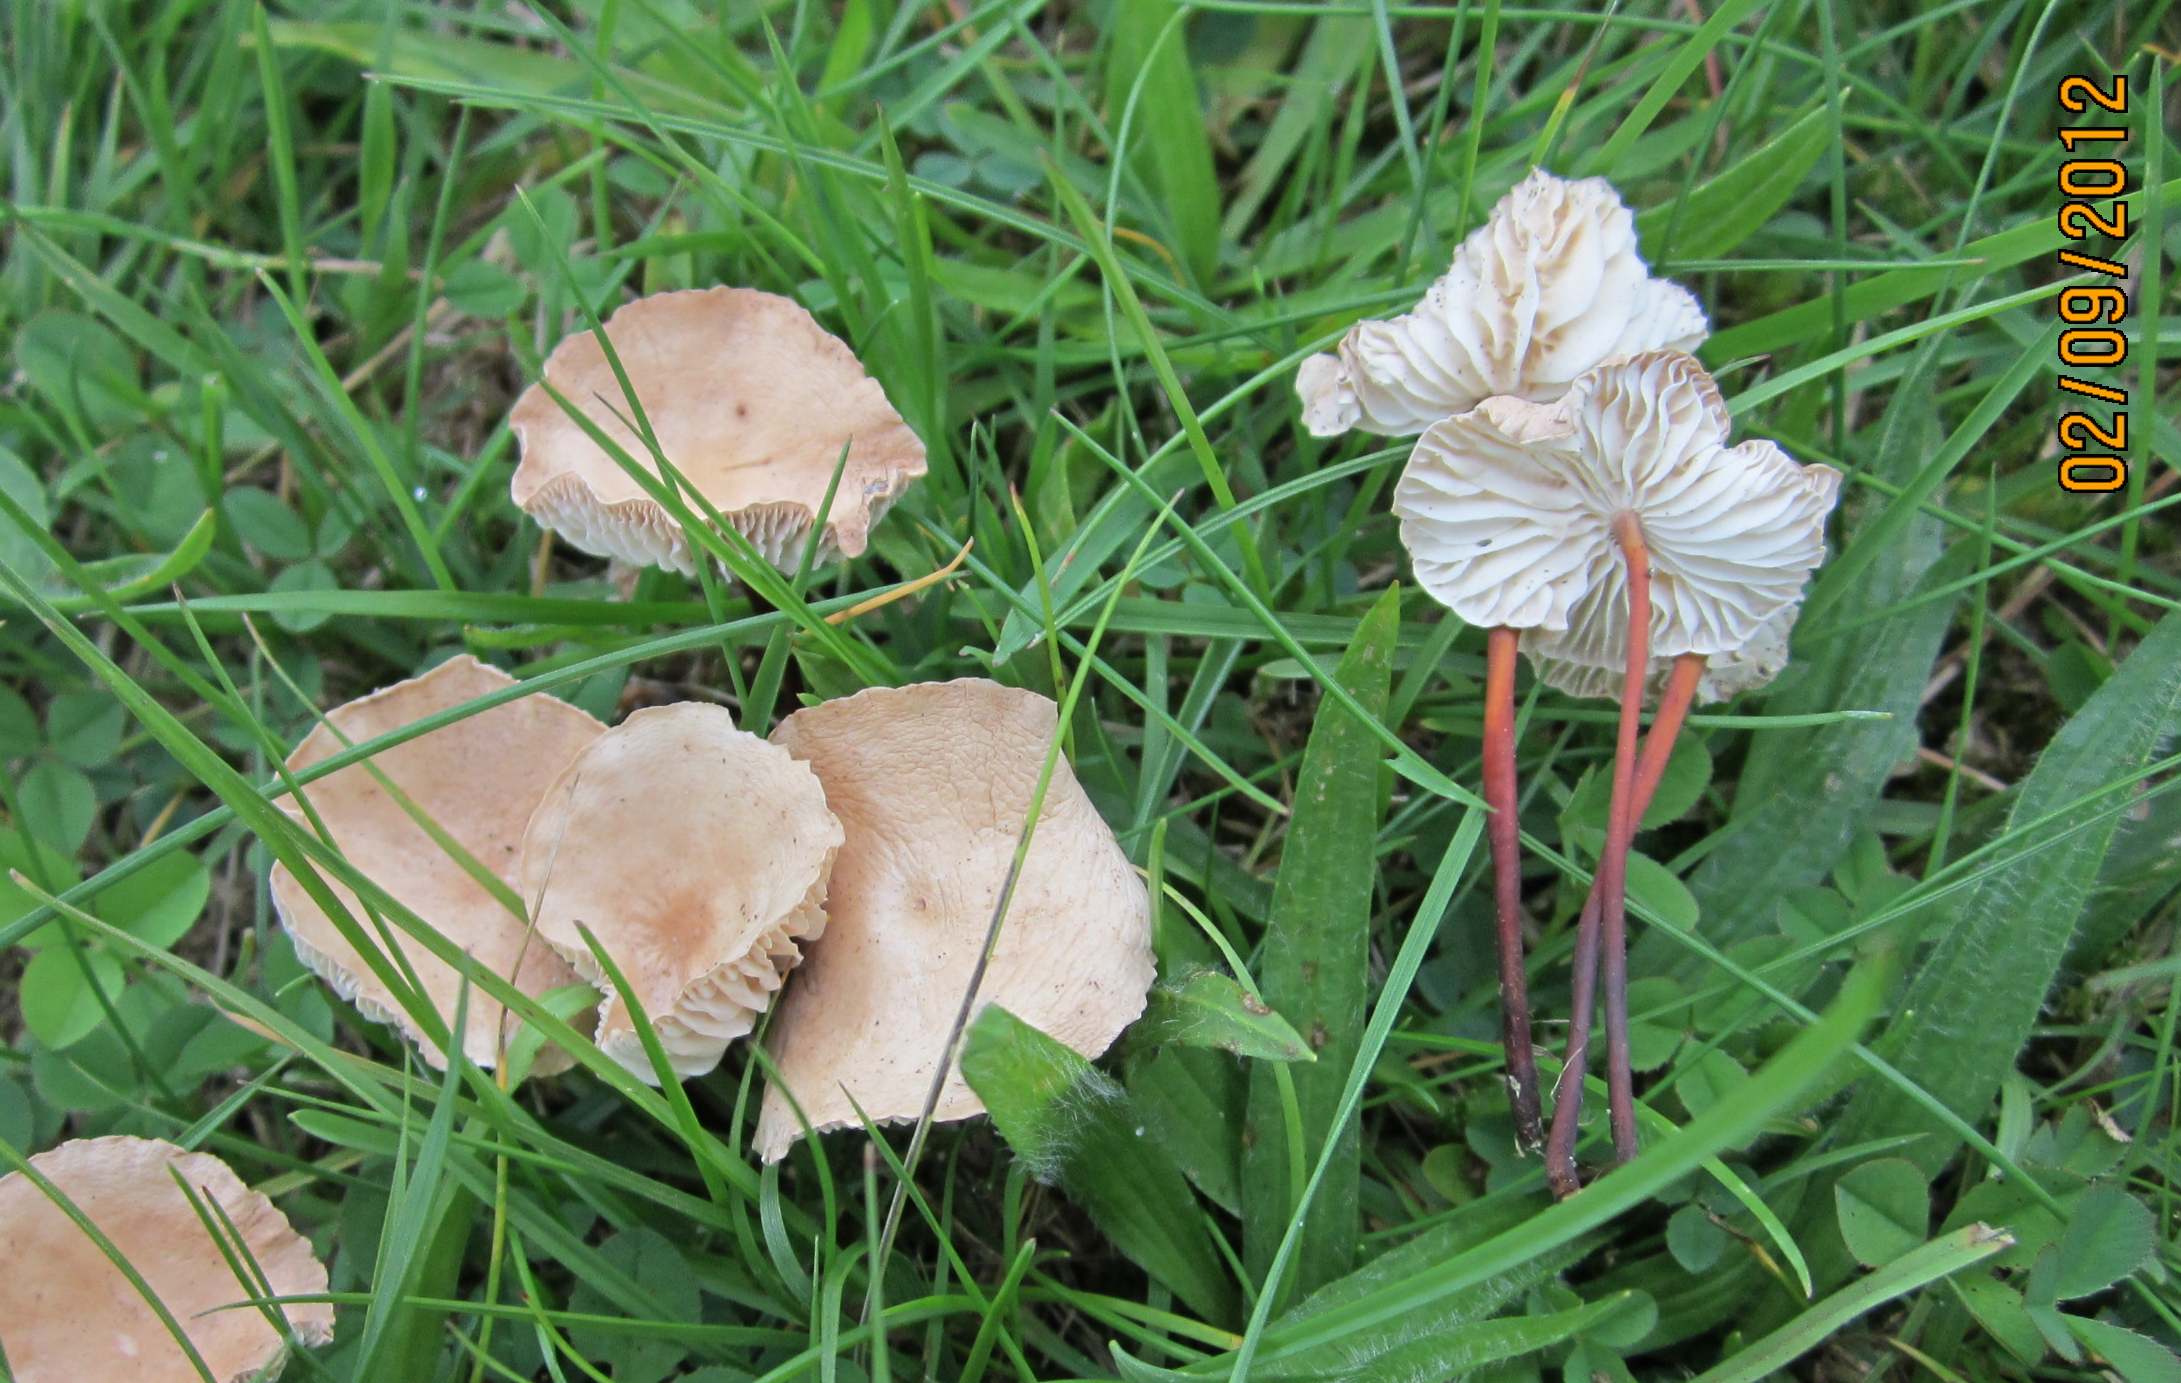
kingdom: Fungi
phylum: Basidiomycota
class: Agaricomycetes
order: Agaricales
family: Omphalotaceae
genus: Mycetinis
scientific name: Mycetinis scorodonius
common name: lille løghat
